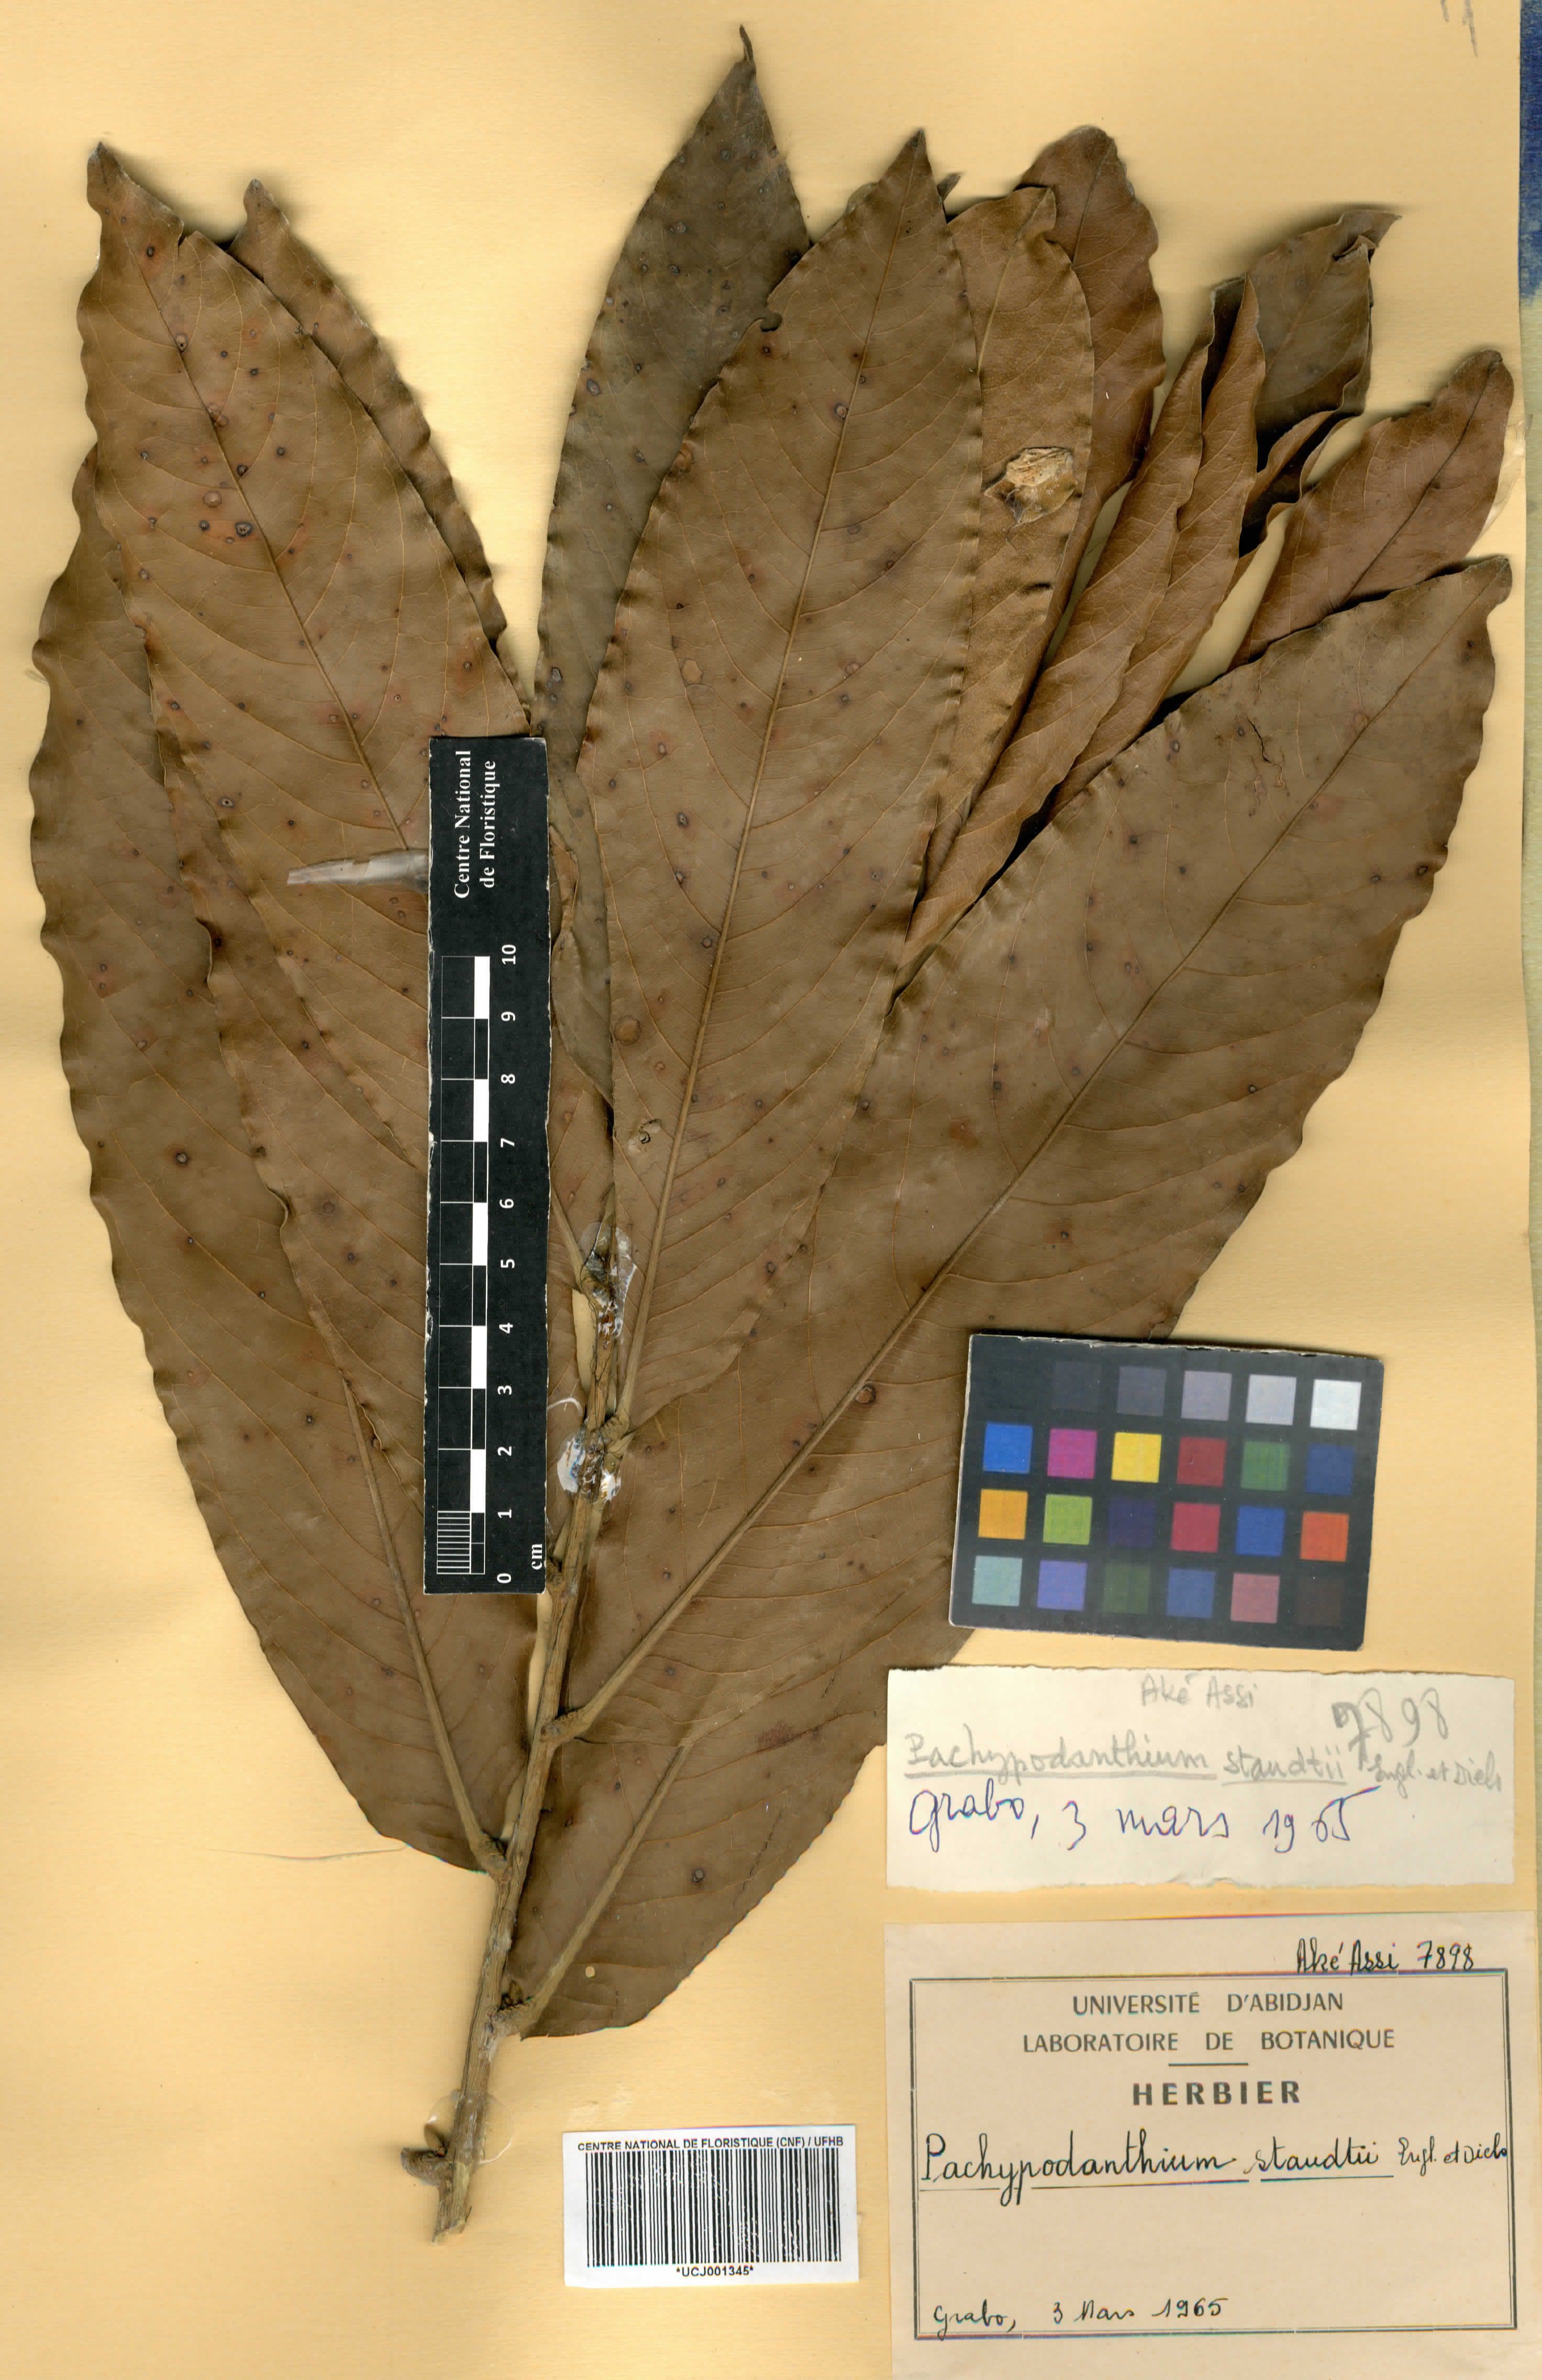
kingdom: Plantae
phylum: Tracheophyta
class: Magnoliopsida
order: Magnoliales
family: Annonaceae
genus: Duguetia
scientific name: Duguetia staudtii
